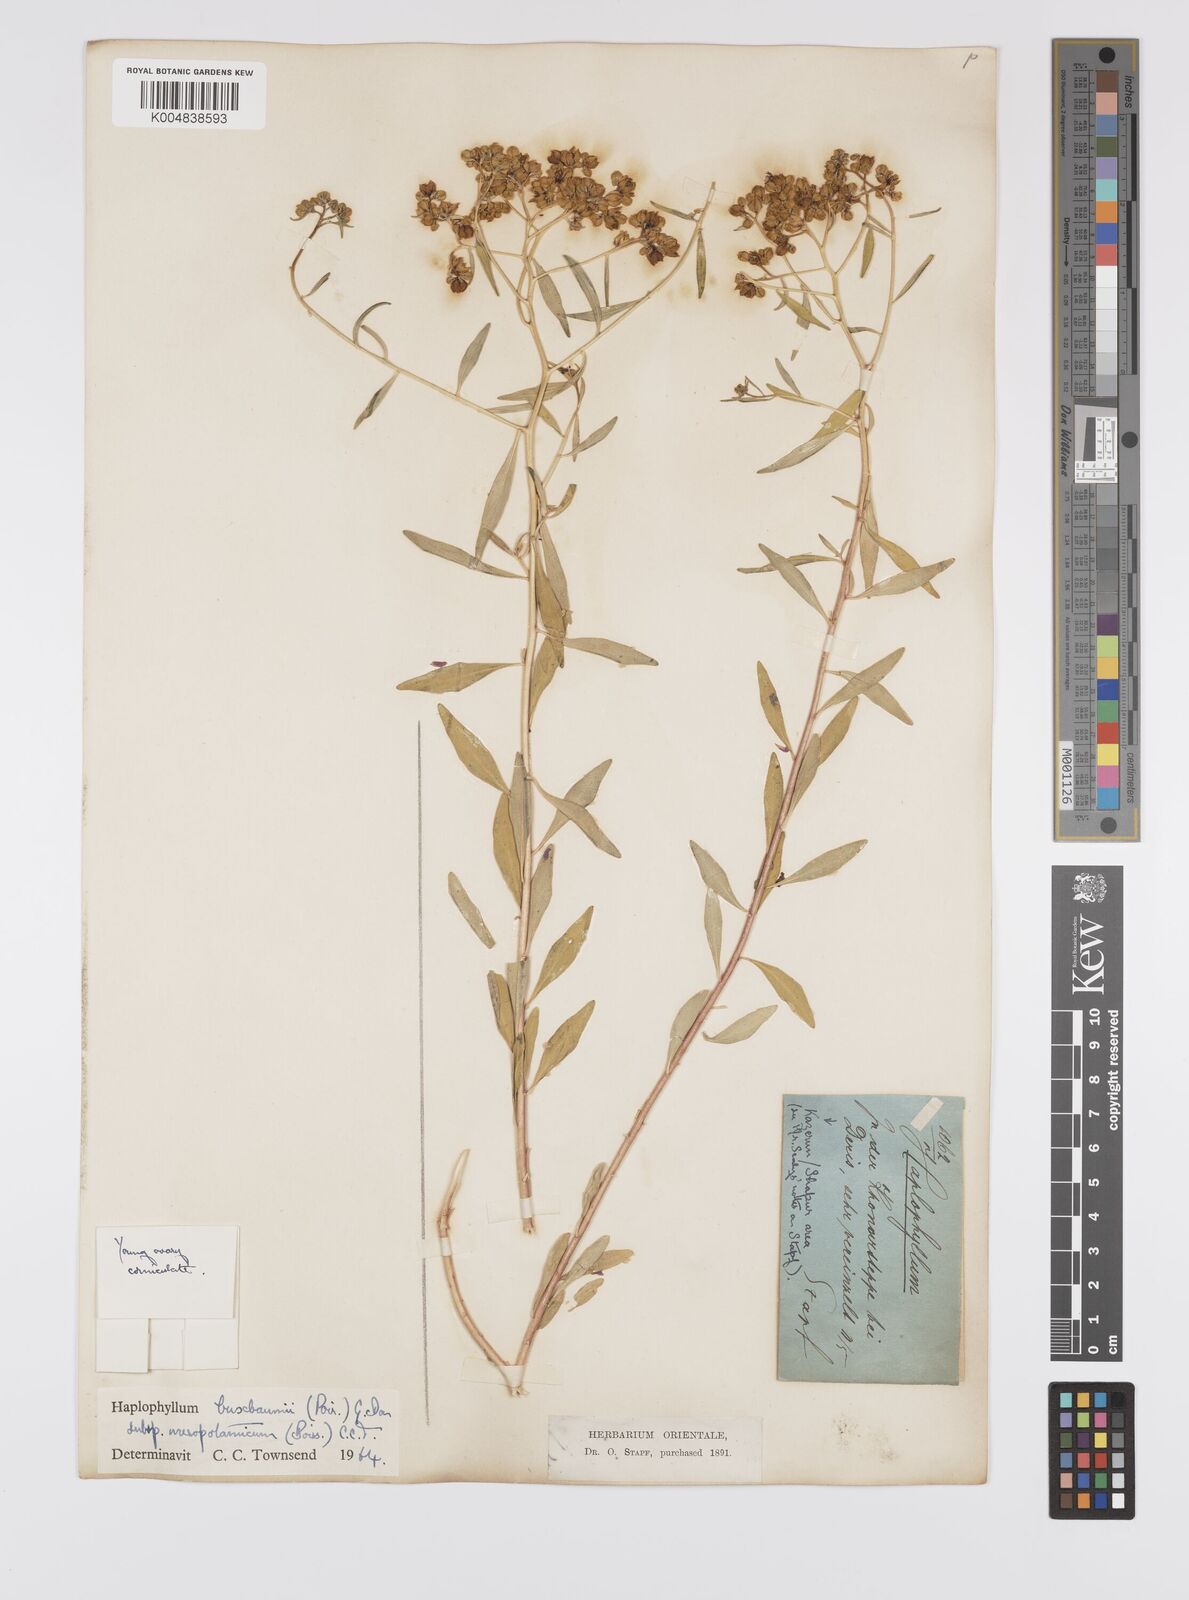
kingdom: Plantae
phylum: Tracheophyta
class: Magnoliopsida
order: Sapindales
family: Rutaceae
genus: Haplophyllum
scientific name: Haplophyllum buxbaumii
